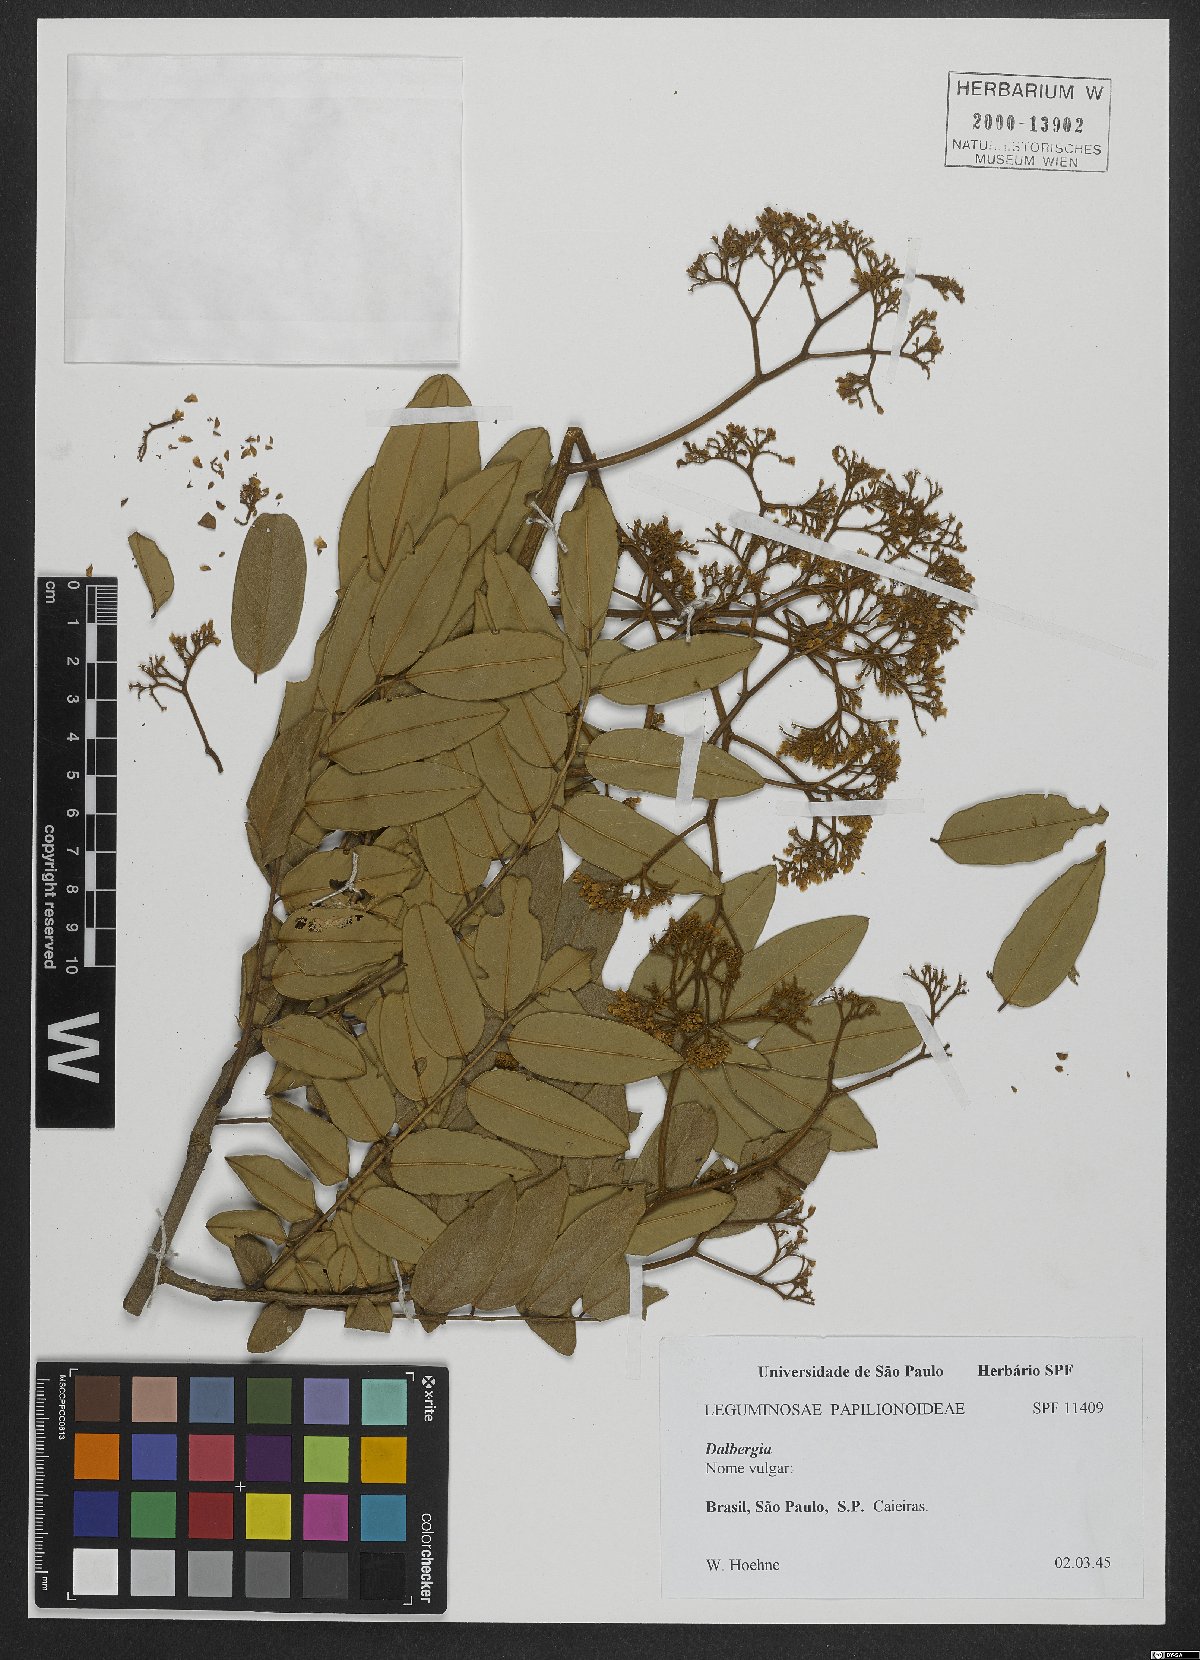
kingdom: Plantae
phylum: Tracheophyta
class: Magnoliopsida
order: Fabales
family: Fabaceae
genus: Dalbergia
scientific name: Dalbergia
